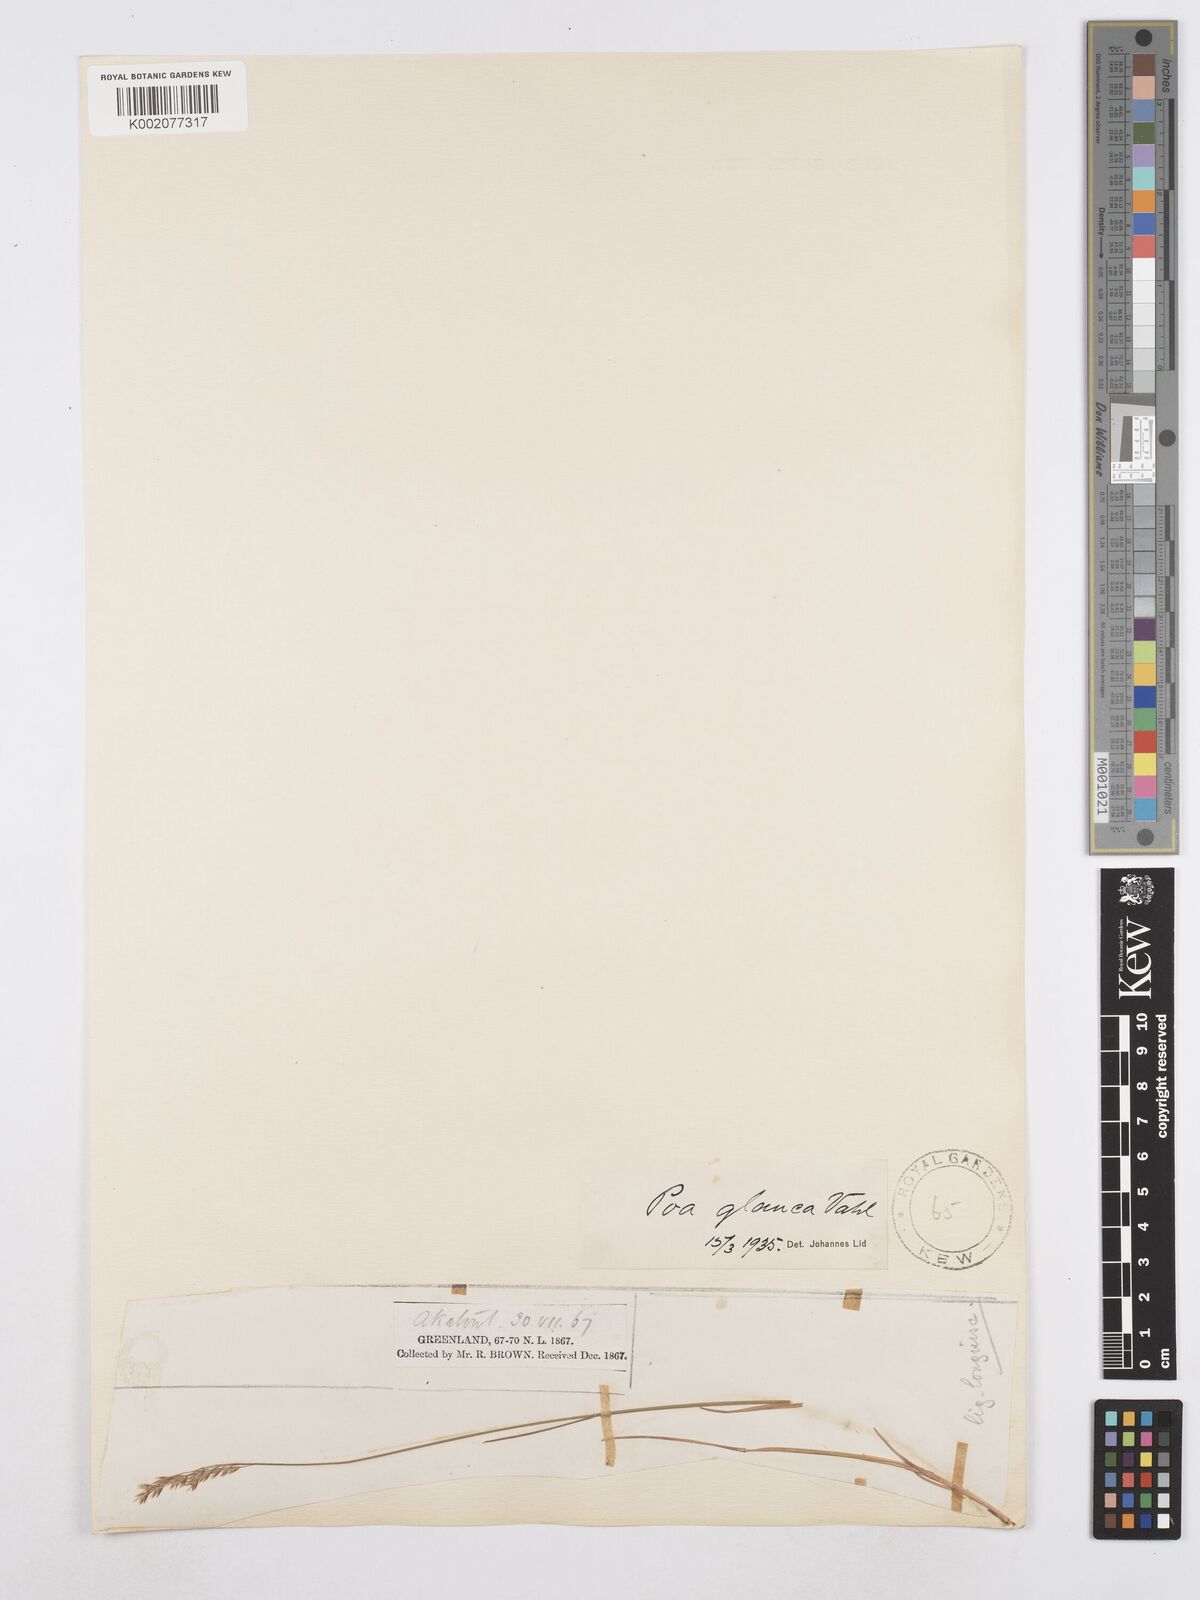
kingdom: Plantae
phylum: Tracheophyta
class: Liliopsida
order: Poales
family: Poaceae
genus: Poa
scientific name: Poa glauca
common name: Glaucous bluegrass
